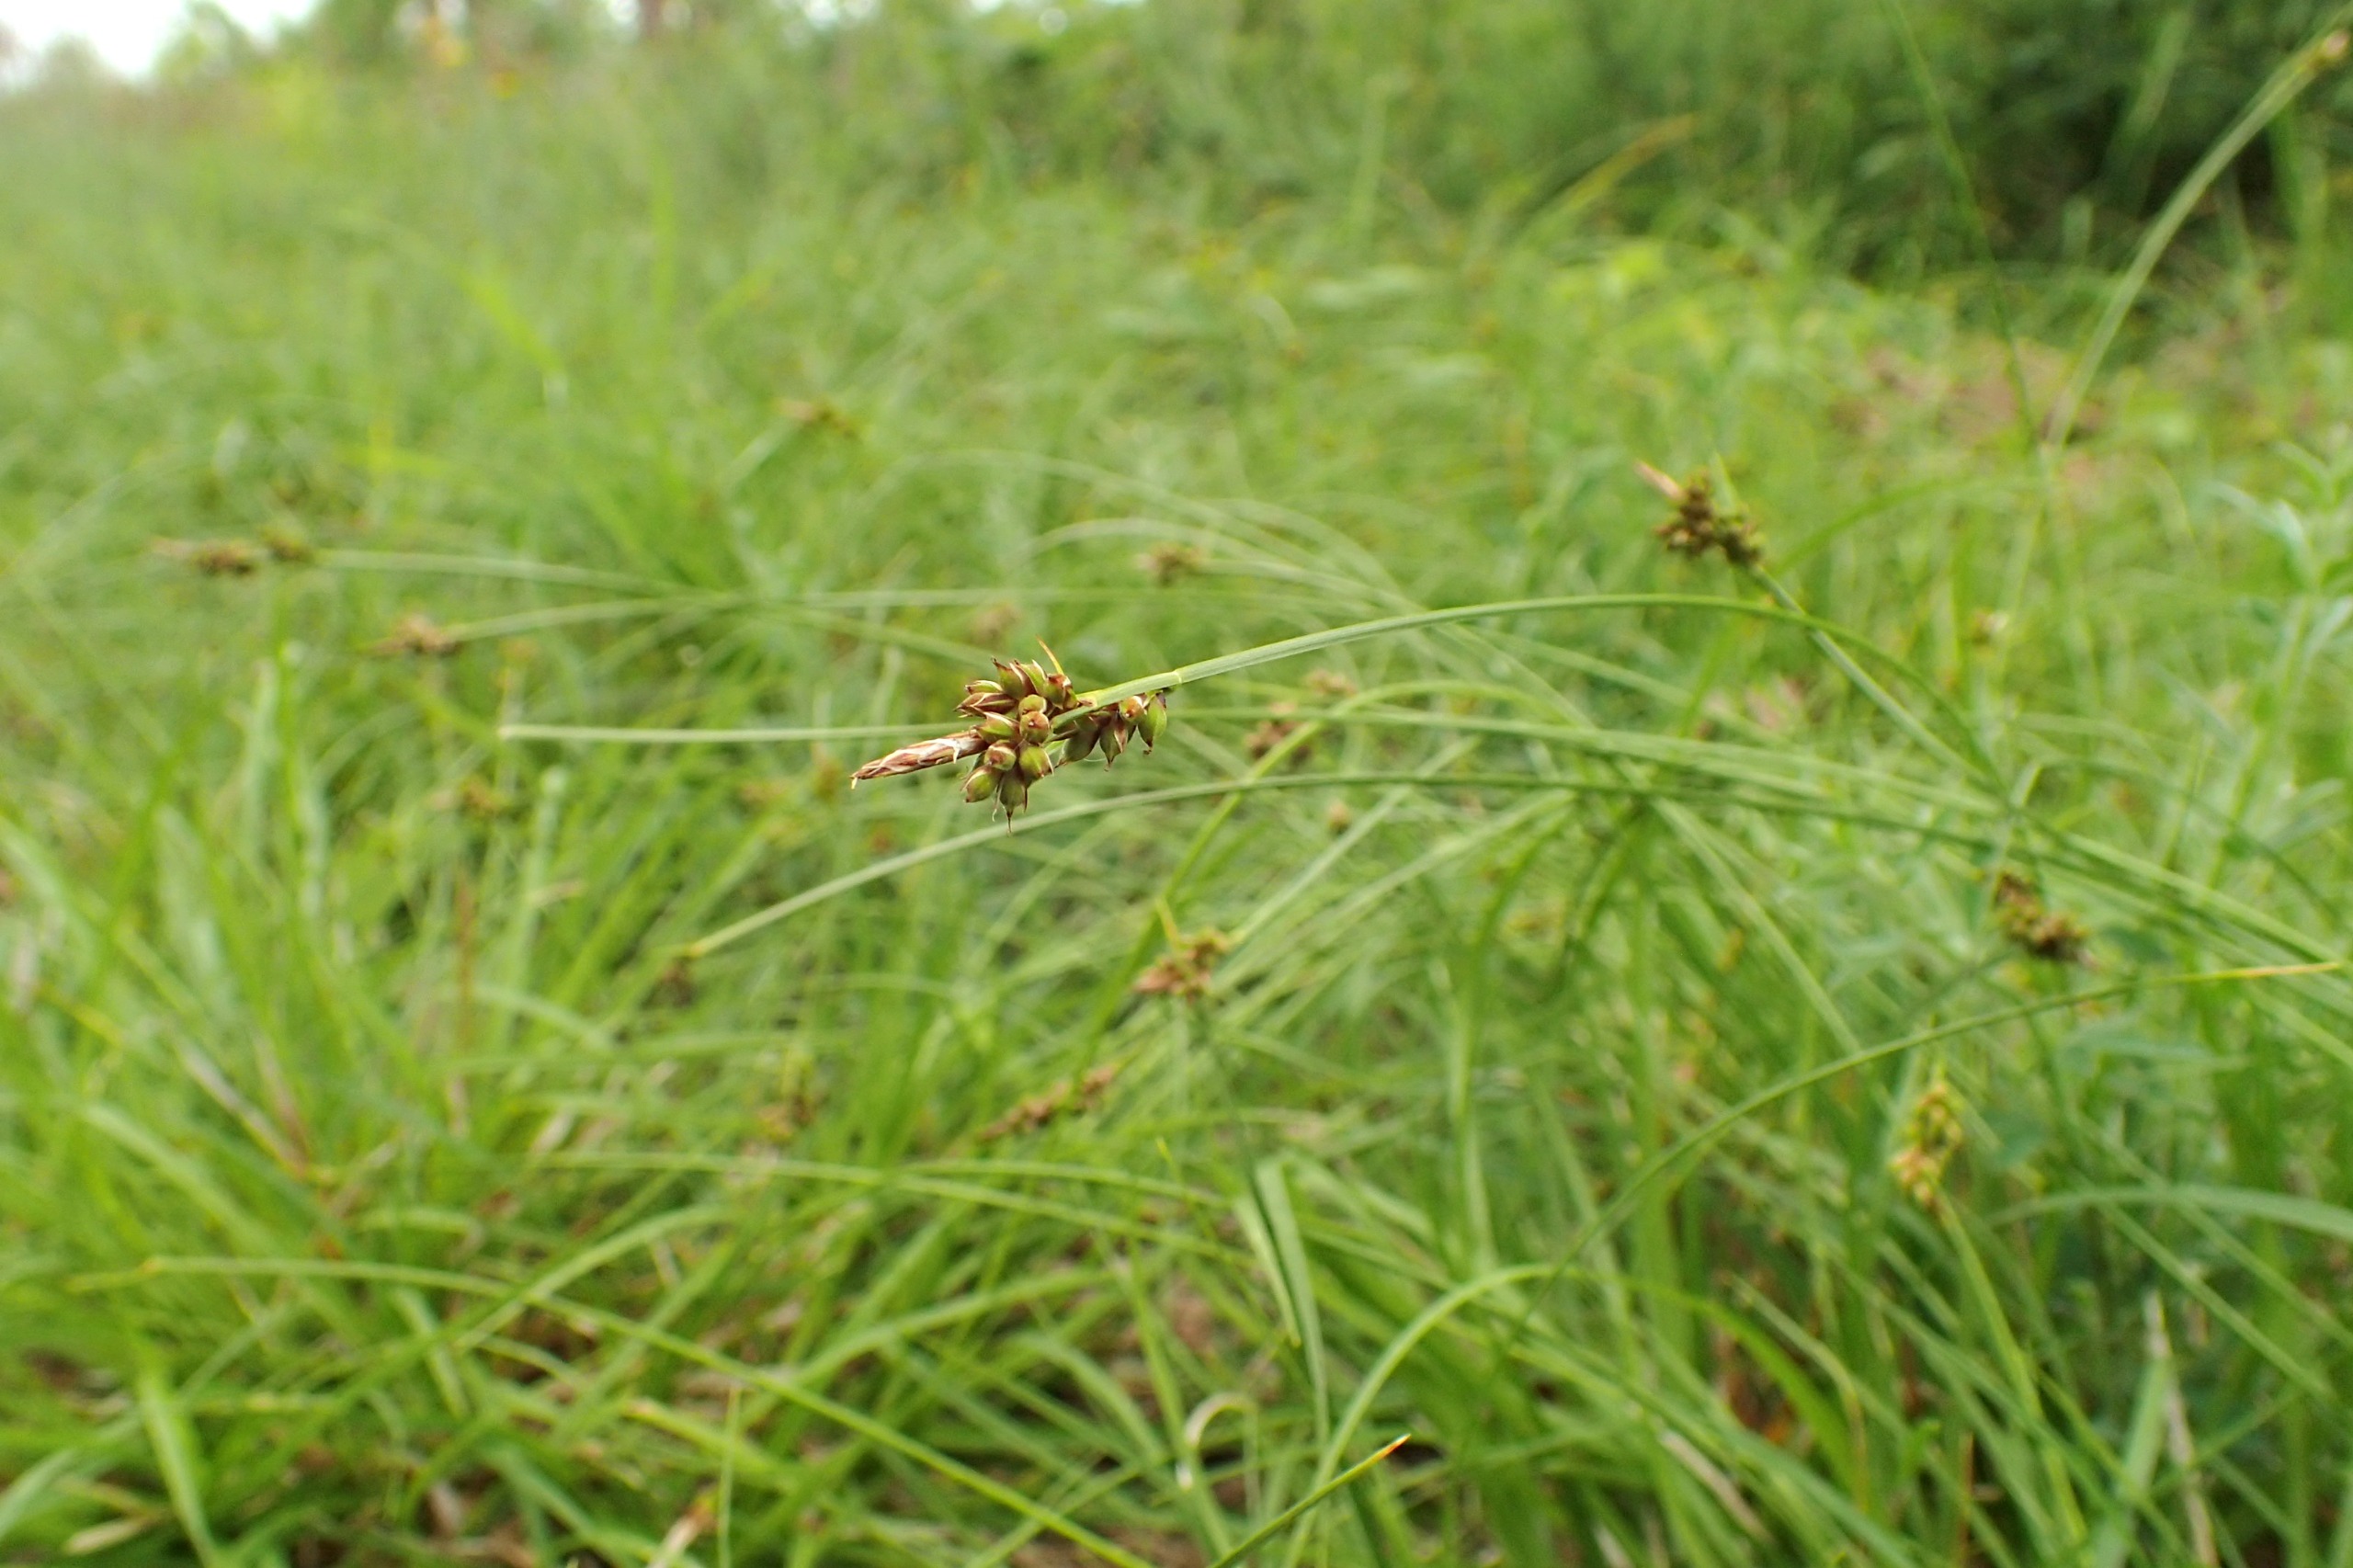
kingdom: Plantae
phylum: Tracheophyta
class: Liliopsida
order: Poales
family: Cyperaceae
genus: Carex
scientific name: Carex pilulifera
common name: Pille-star
